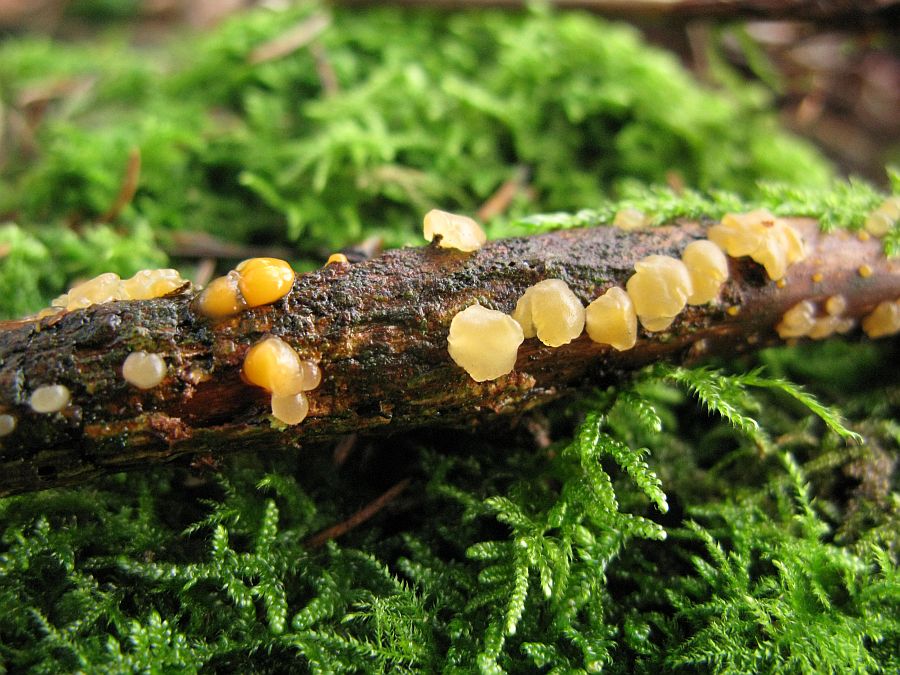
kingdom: Fungi
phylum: Basidiomycota
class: Dacrymycetes
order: Dacrymycetales
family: Dacrymycetaceae
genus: Dacrymyces
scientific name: Dacrymyces stillatus
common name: almindelig tåresvamp
